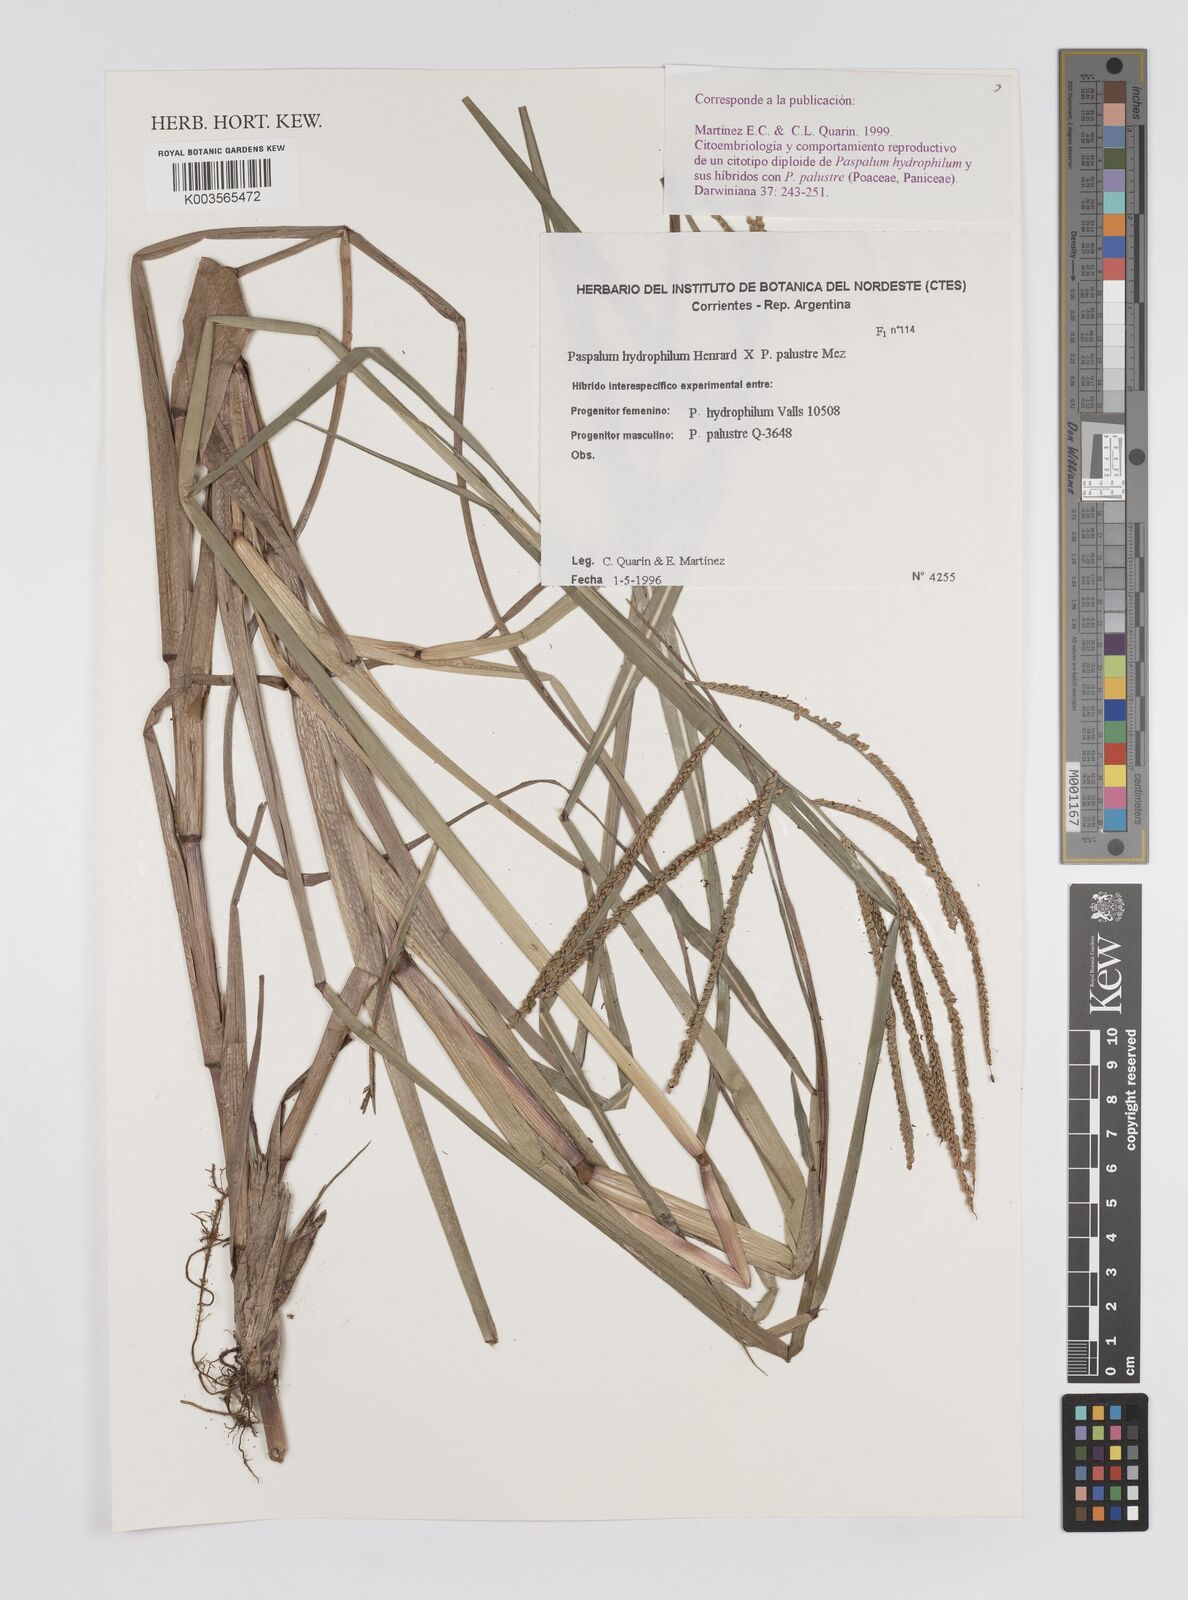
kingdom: Plantae
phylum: Tracheophyta
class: Liliopsida
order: Poales
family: Poaceae
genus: Paspalum
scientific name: Paspalum wrightii
